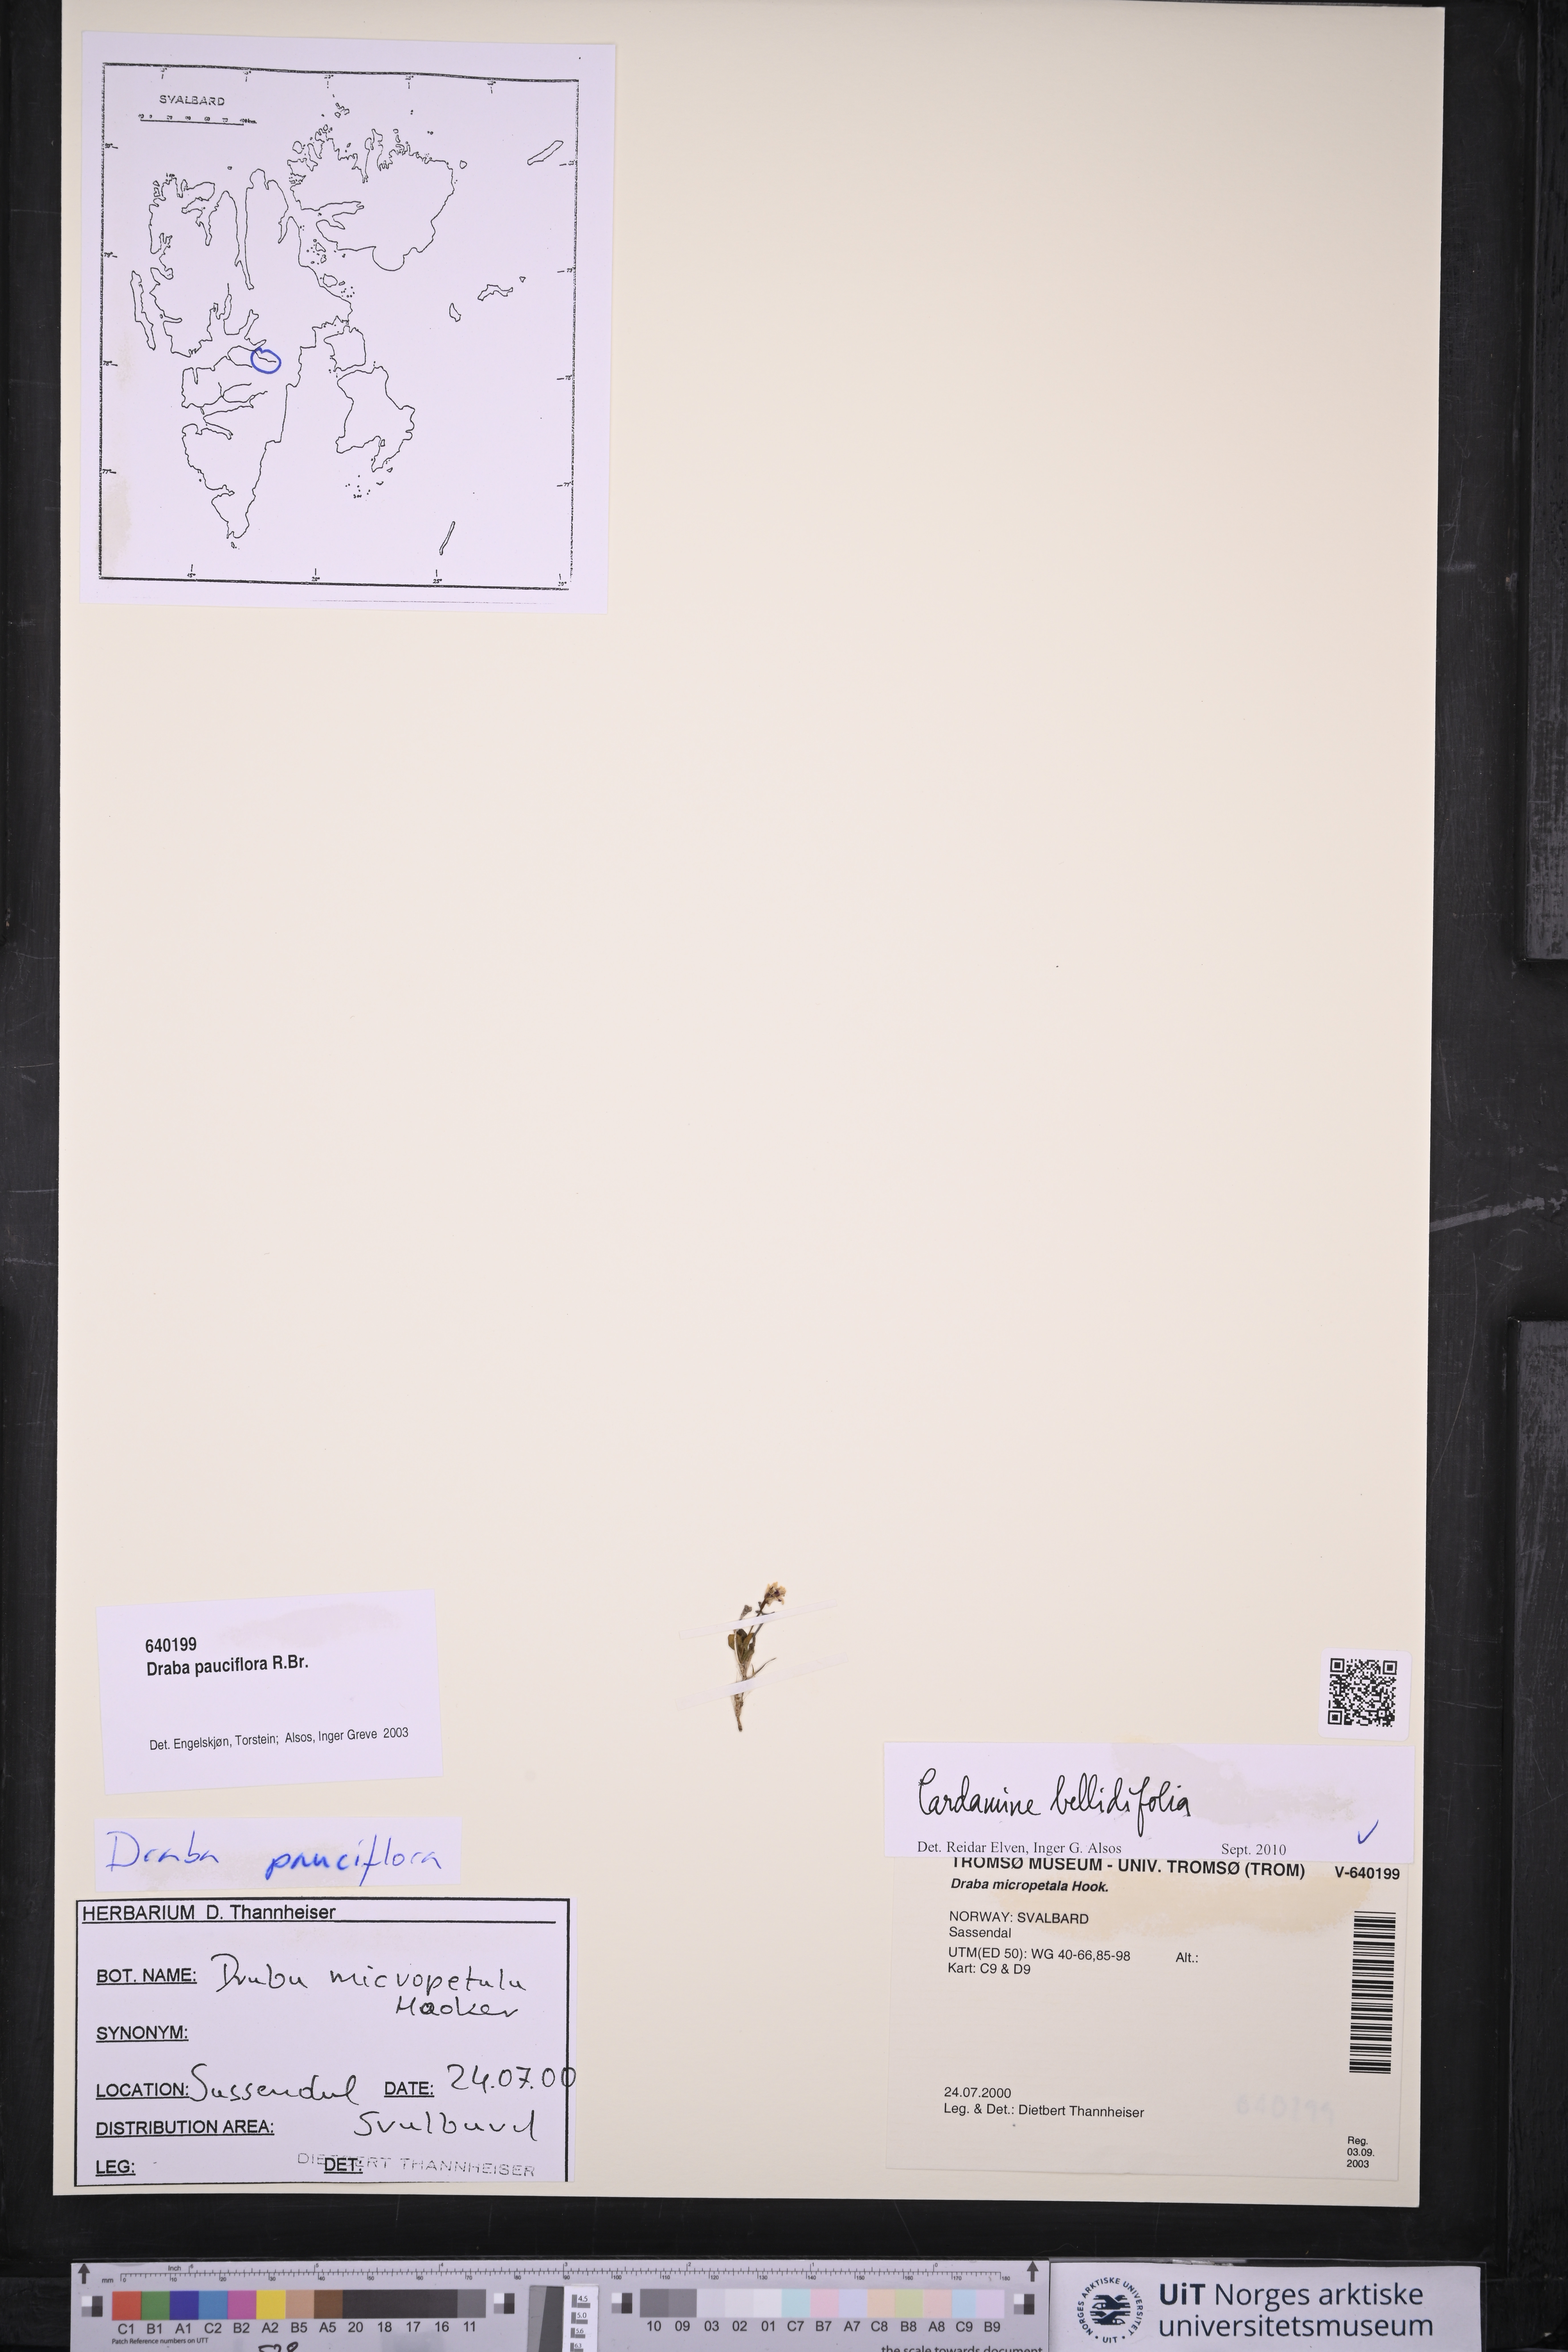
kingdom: Plantae
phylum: Tracheophyta
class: Magnoliopsida
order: Brassicales
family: Brassicaceae
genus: Cardamine
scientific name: Cardamine bellidifolia
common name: Alpine bittercress
